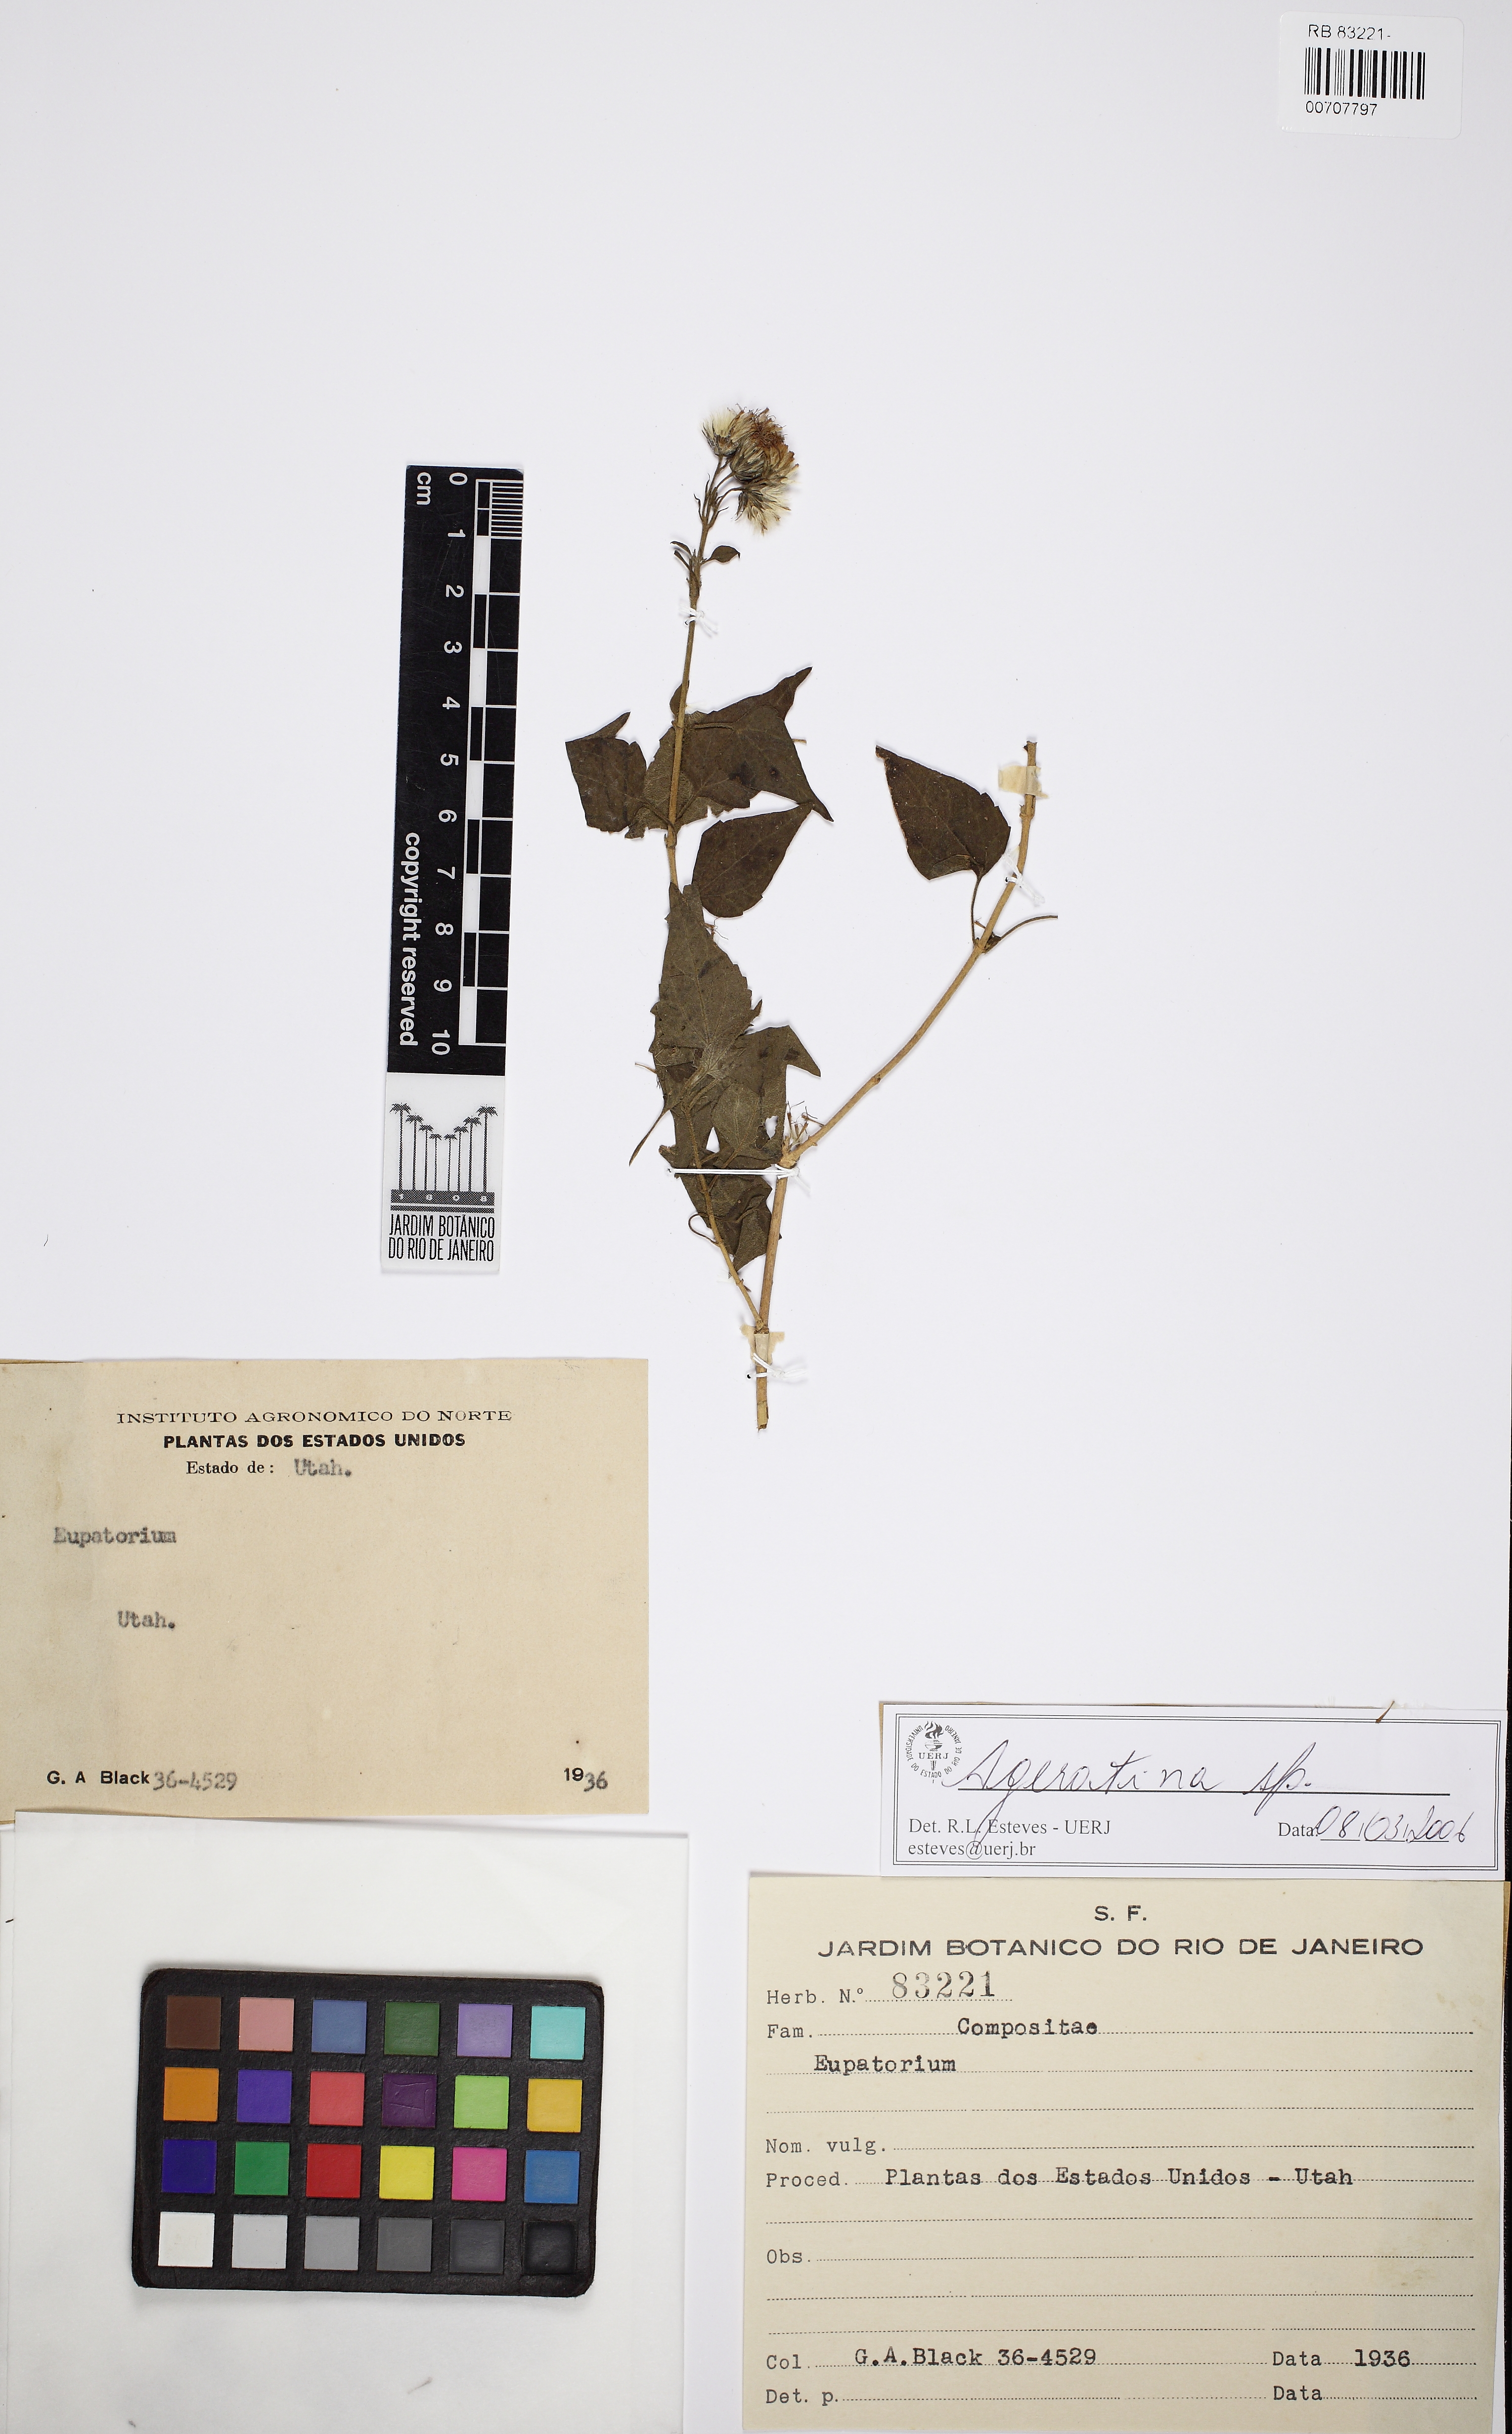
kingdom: Plantae
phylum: Tracheophyta
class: Magnoliopsida
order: Asterales
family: Asteraceae
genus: Ageratina
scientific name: Ageratina
